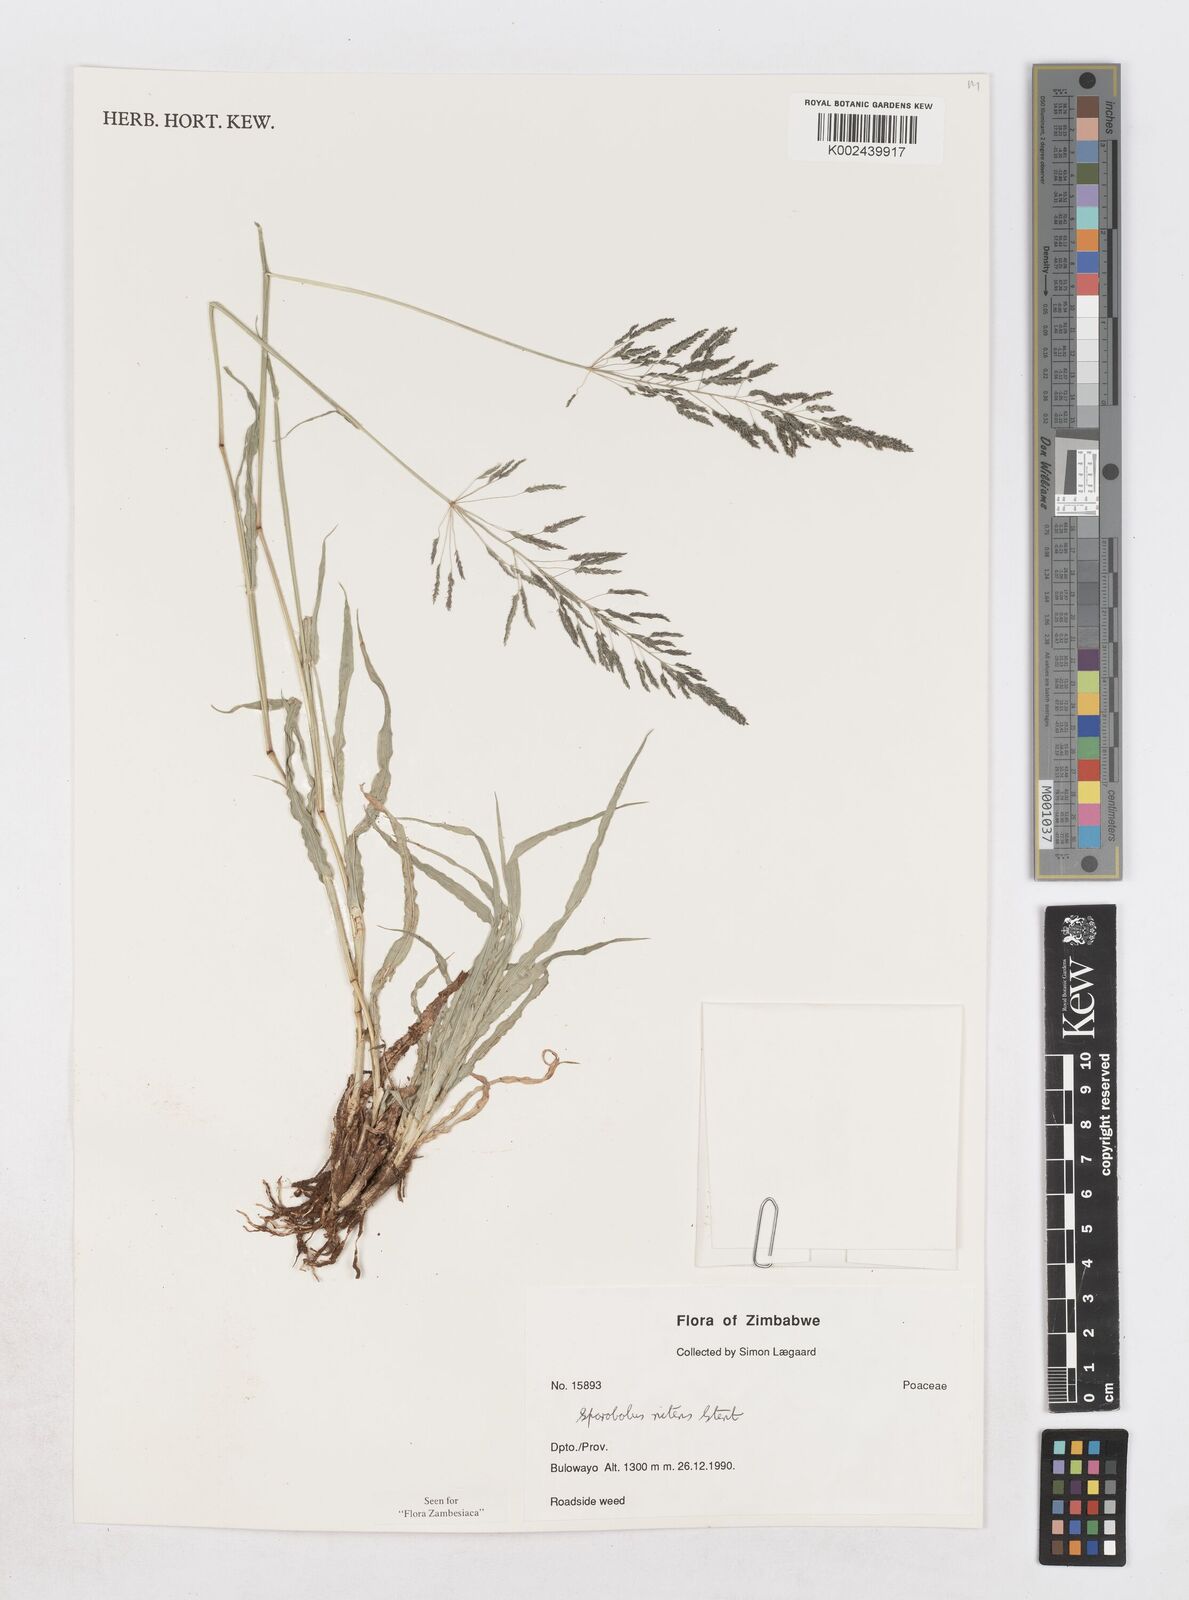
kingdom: Plantae
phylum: Tracheophyta
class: Liliopsida
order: Poales
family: Poaceae
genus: Sporobolus
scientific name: Sporobolus nitens
